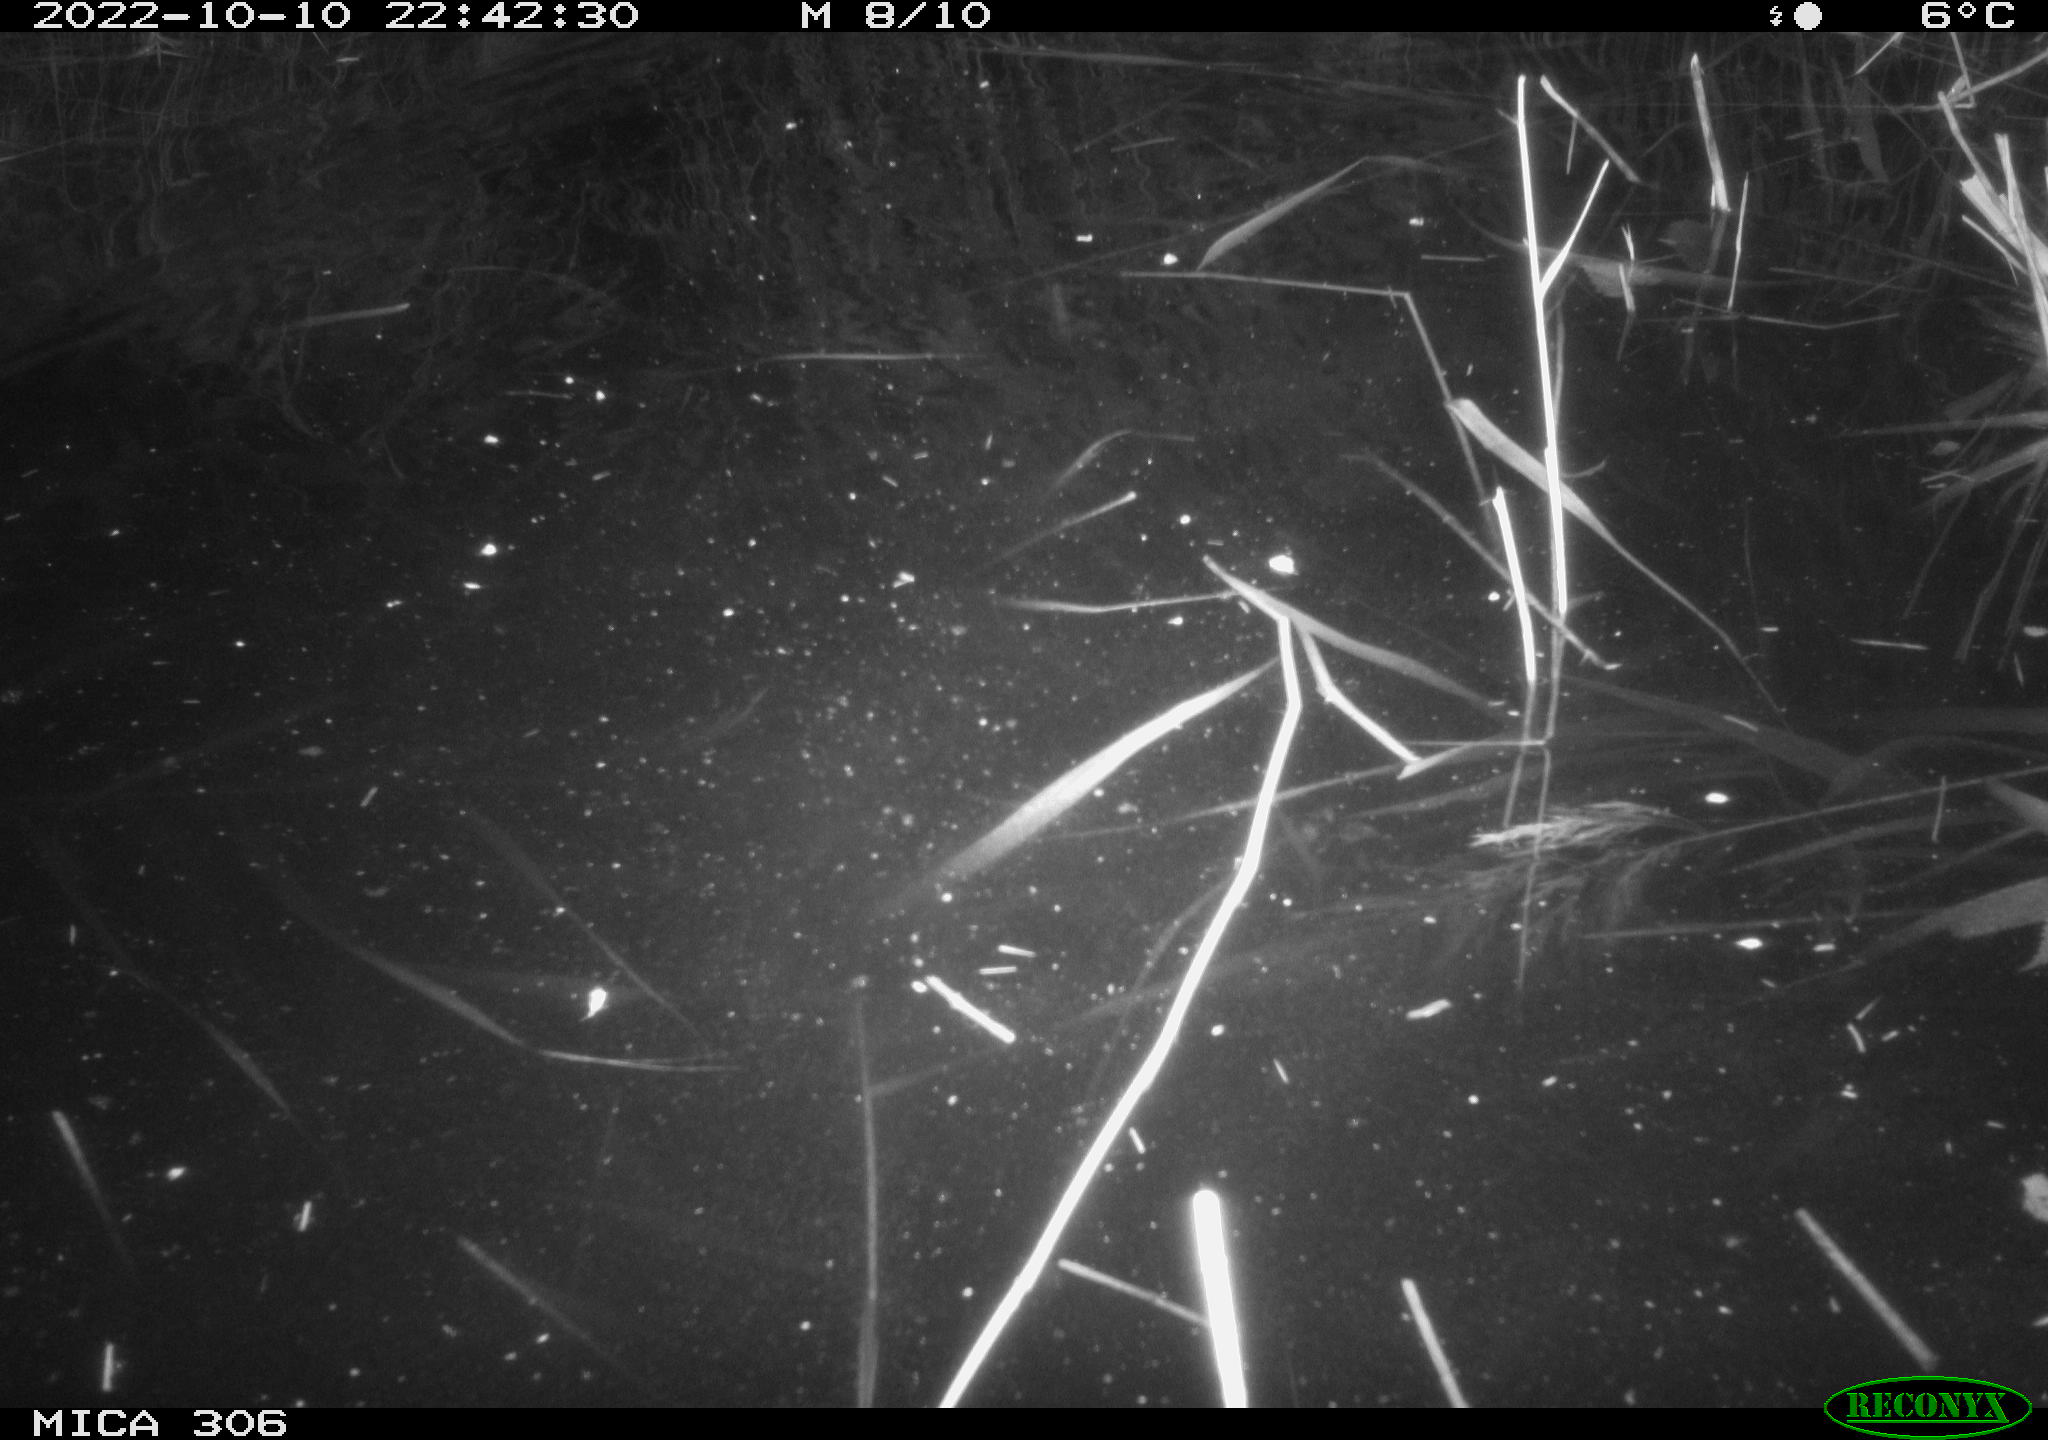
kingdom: Animalia
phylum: Chordata
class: Mammalia
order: Rodentia
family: Muridae
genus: Rattus
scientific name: Rattus norvegicus
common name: Brown rat
